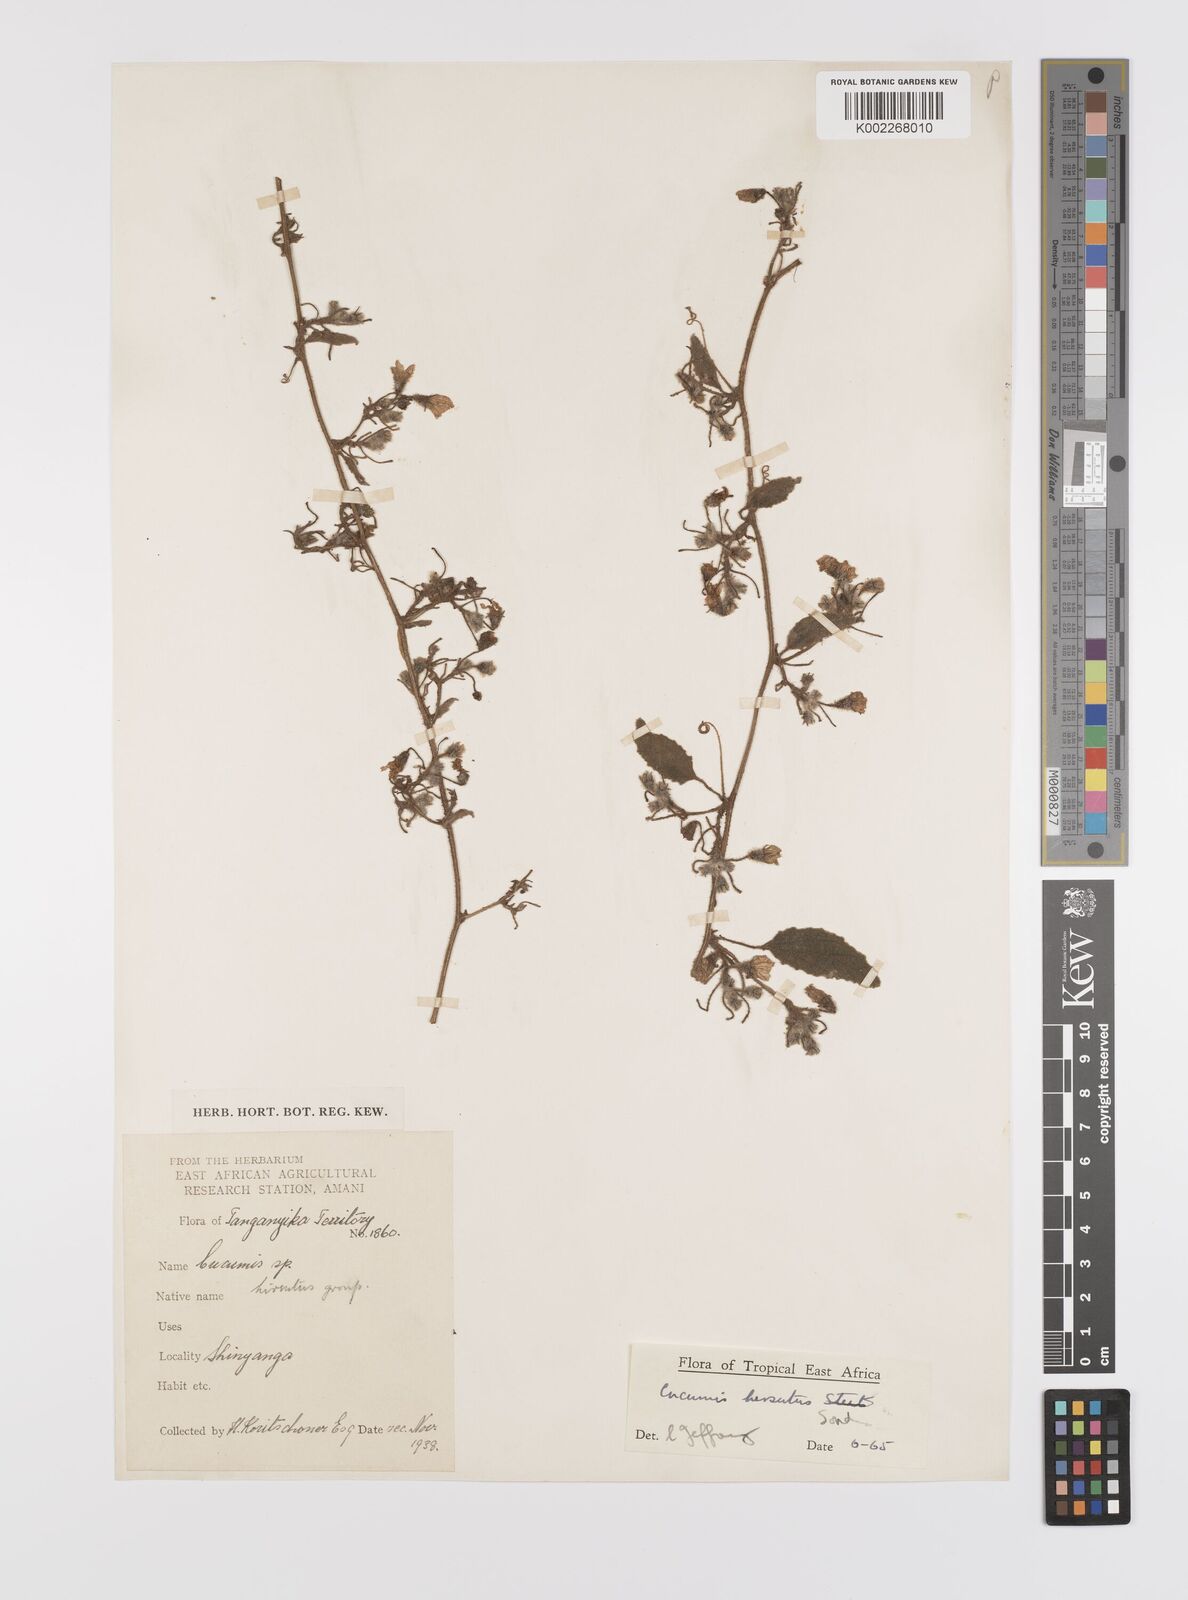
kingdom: Plantae
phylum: Tracheophyta
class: Magnoliopsida
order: Cucurbitales
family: Cucurbitaceae
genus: Cucumis
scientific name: Cucumis hirsutus
